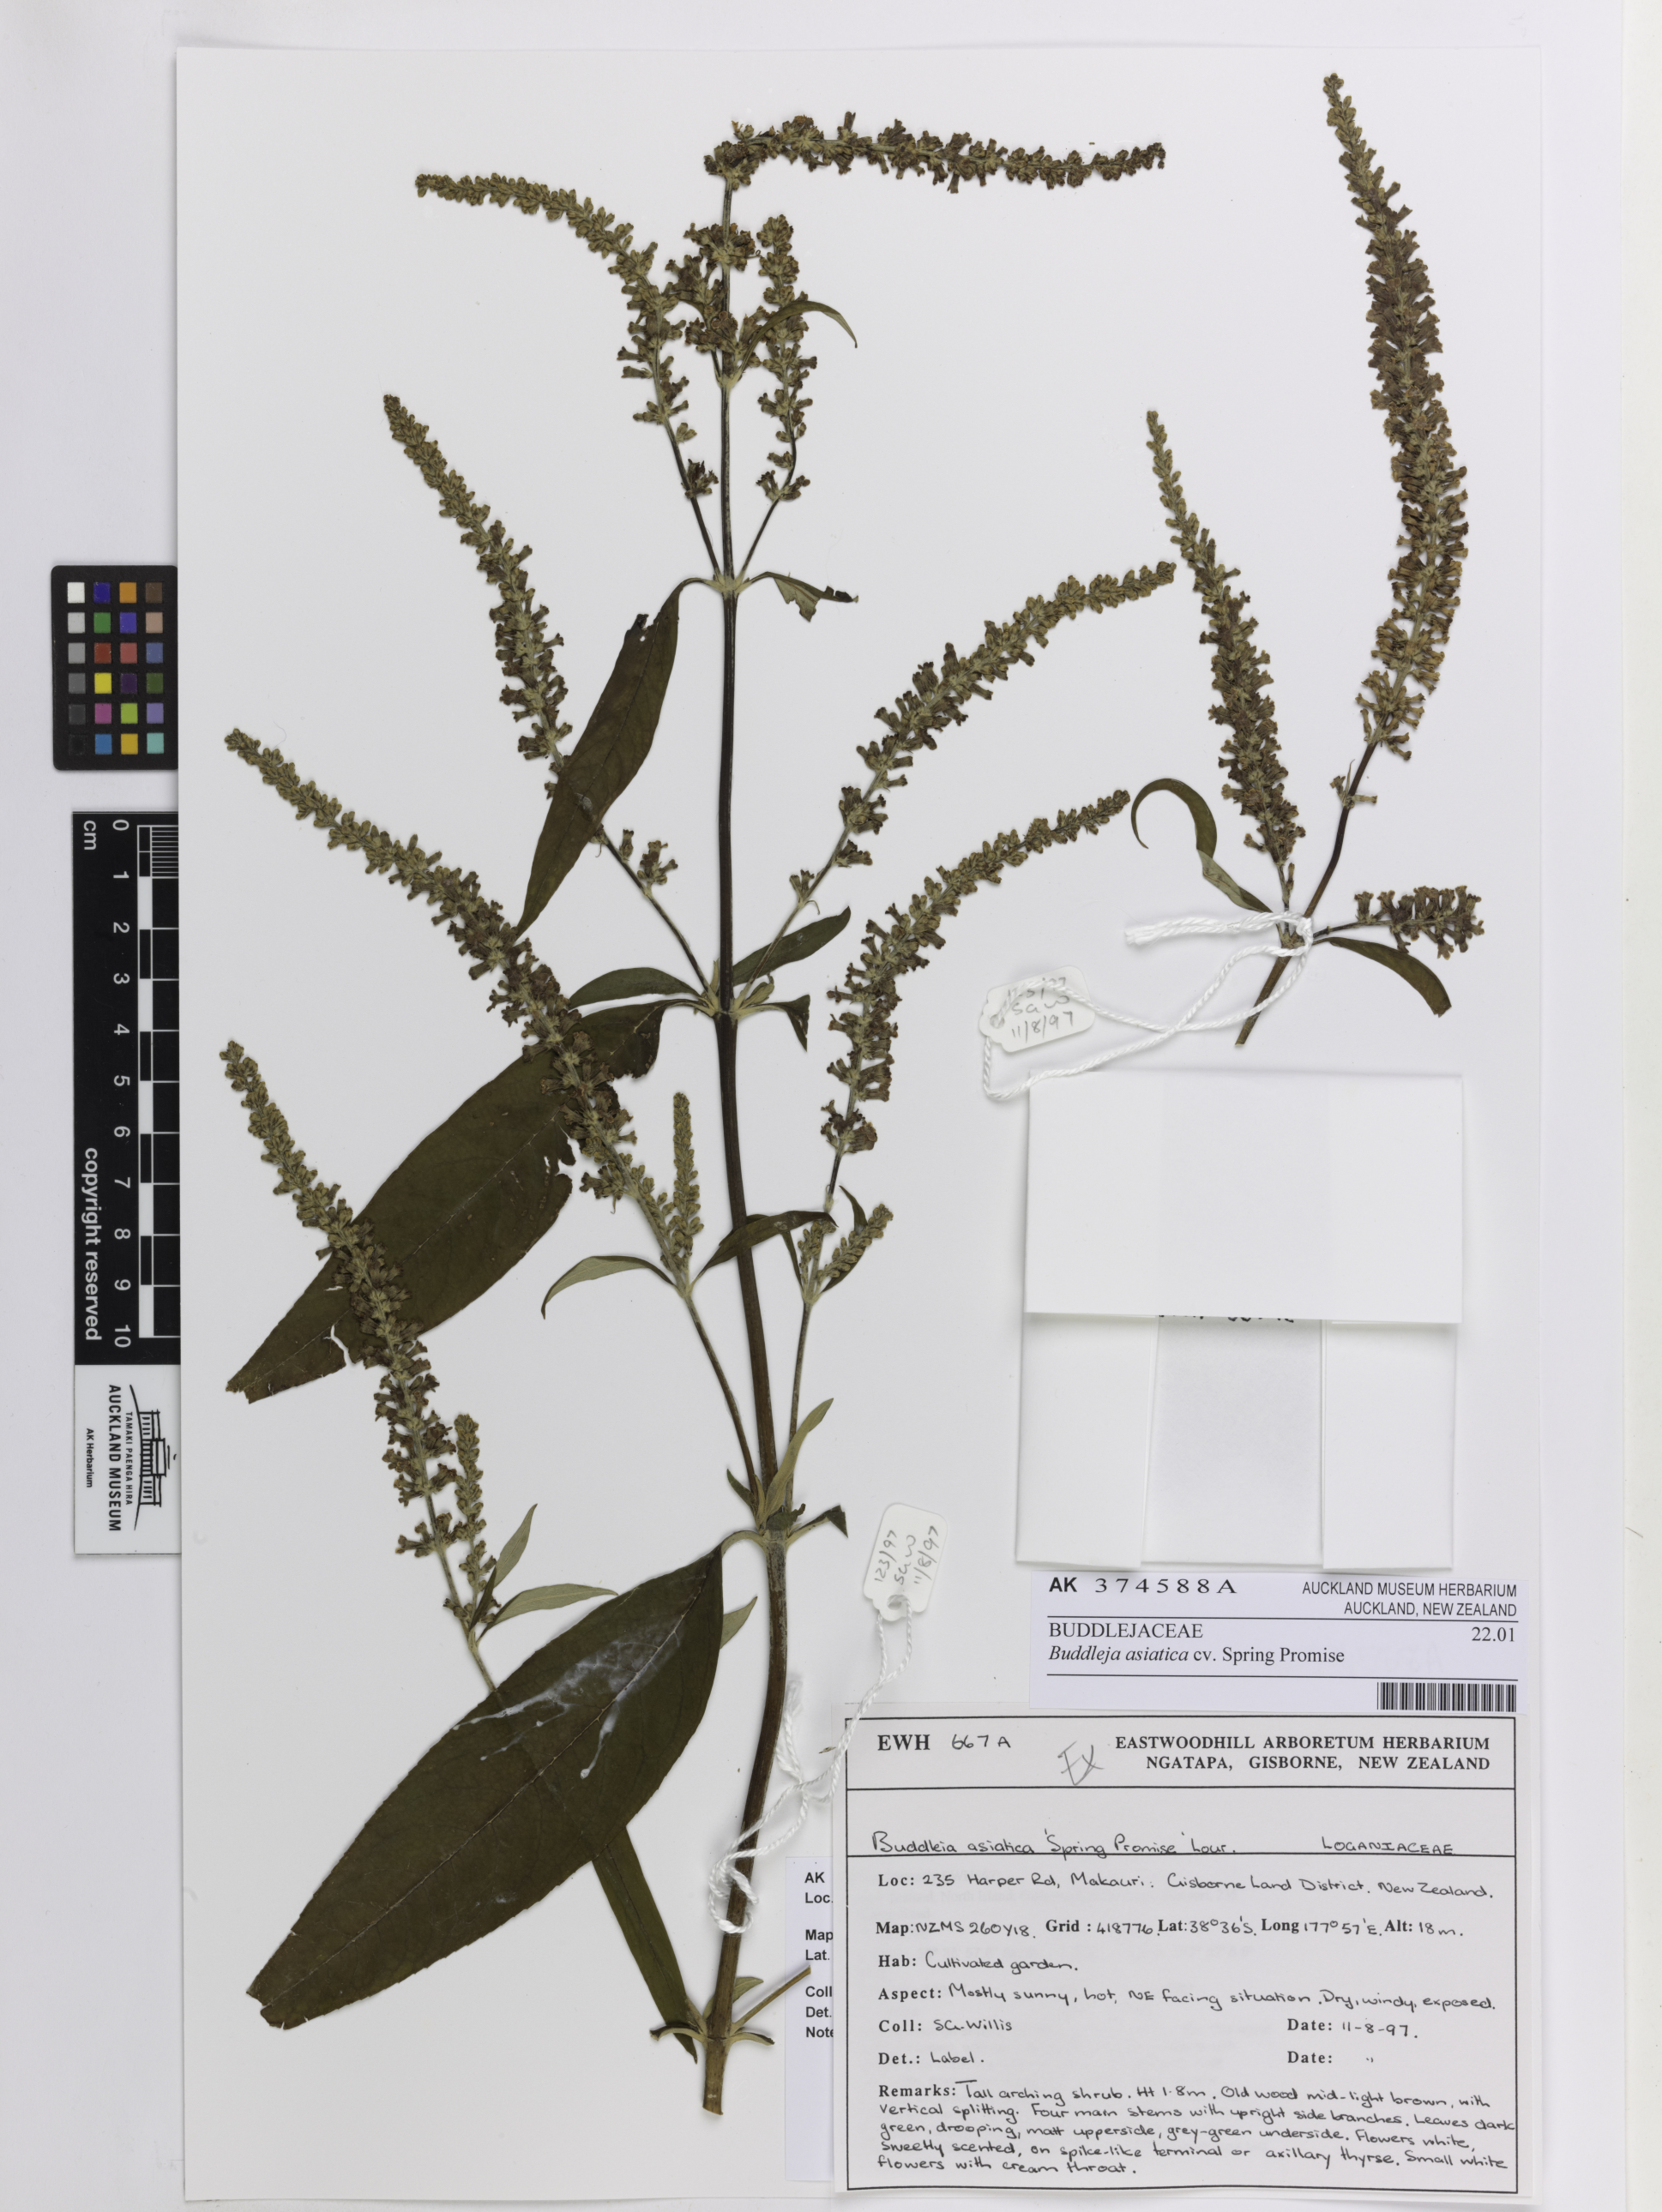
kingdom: Plantae
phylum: Tracheophyta
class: Magnoliopsida
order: Lamiales
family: Scrophulariaceae
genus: Buddleja
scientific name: Buddleja asiatica
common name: Dog tail
